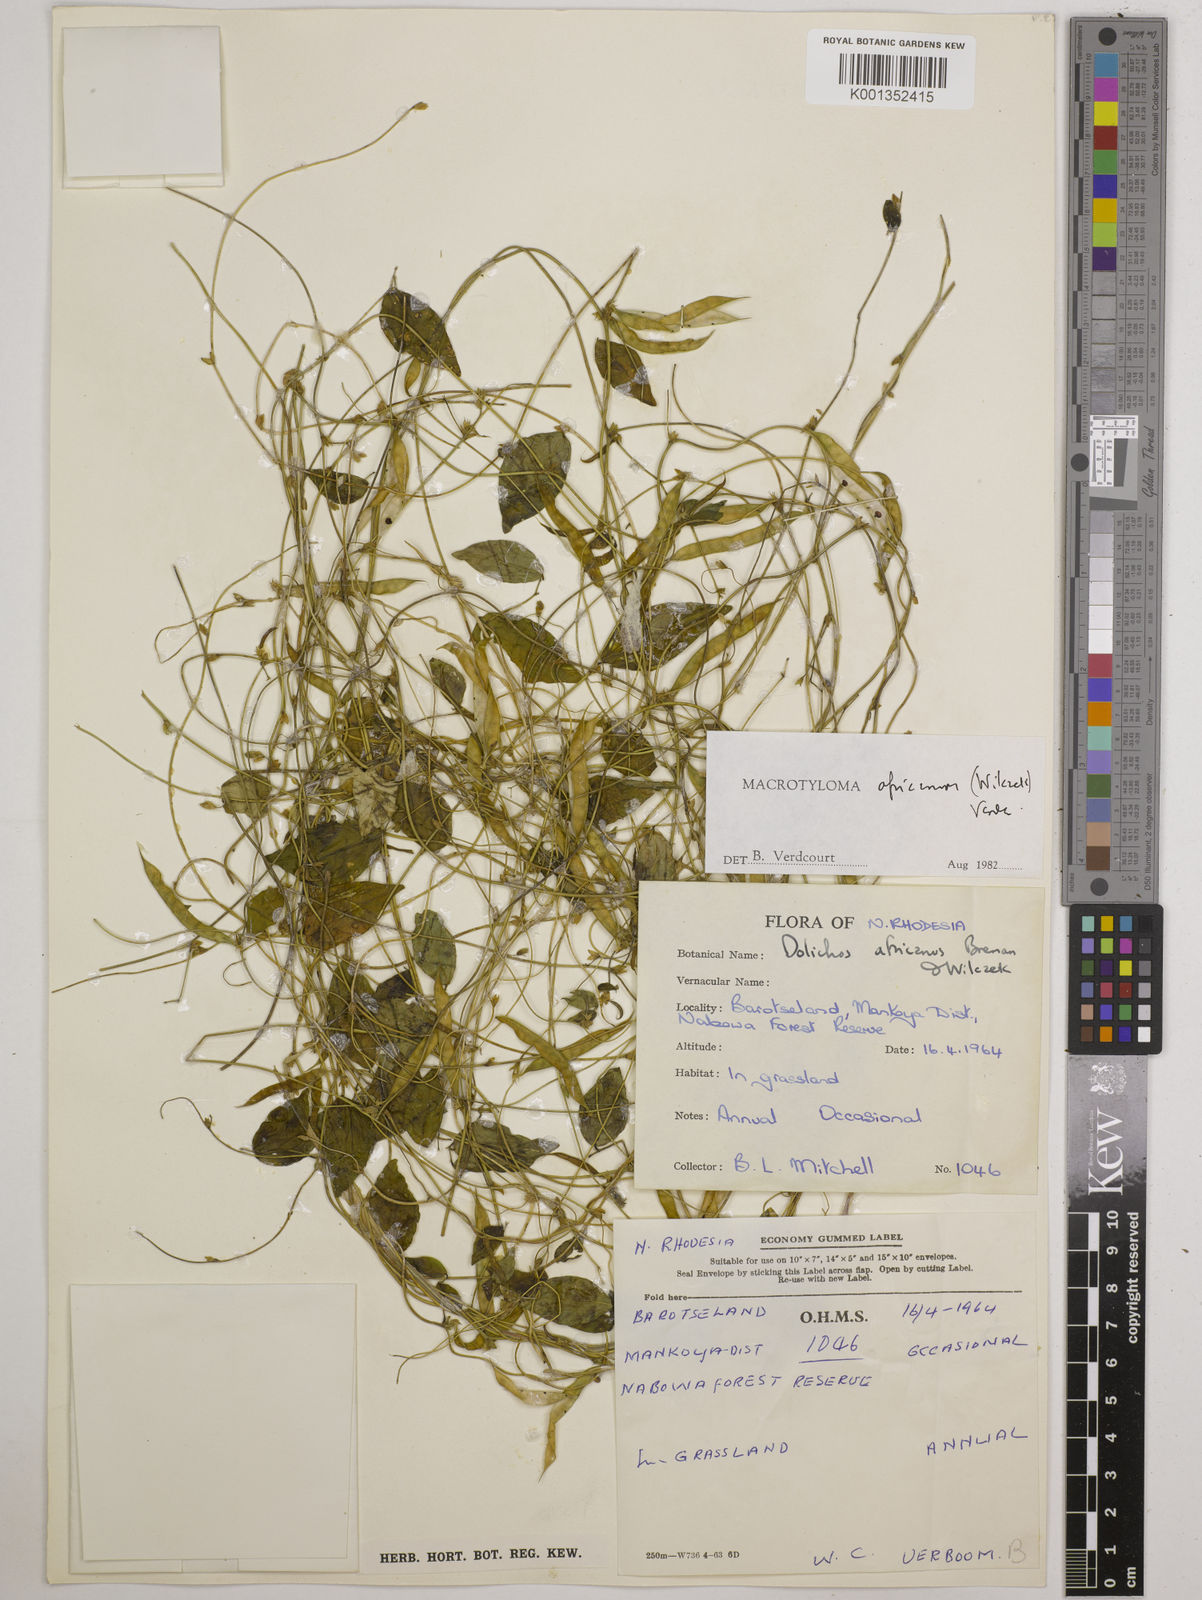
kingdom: Plantae
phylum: Tracheophyta
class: Magnoliopsida
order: Fabales
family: Fabaceae
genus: Macrotyloma
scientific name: Macrotyloma africanum
